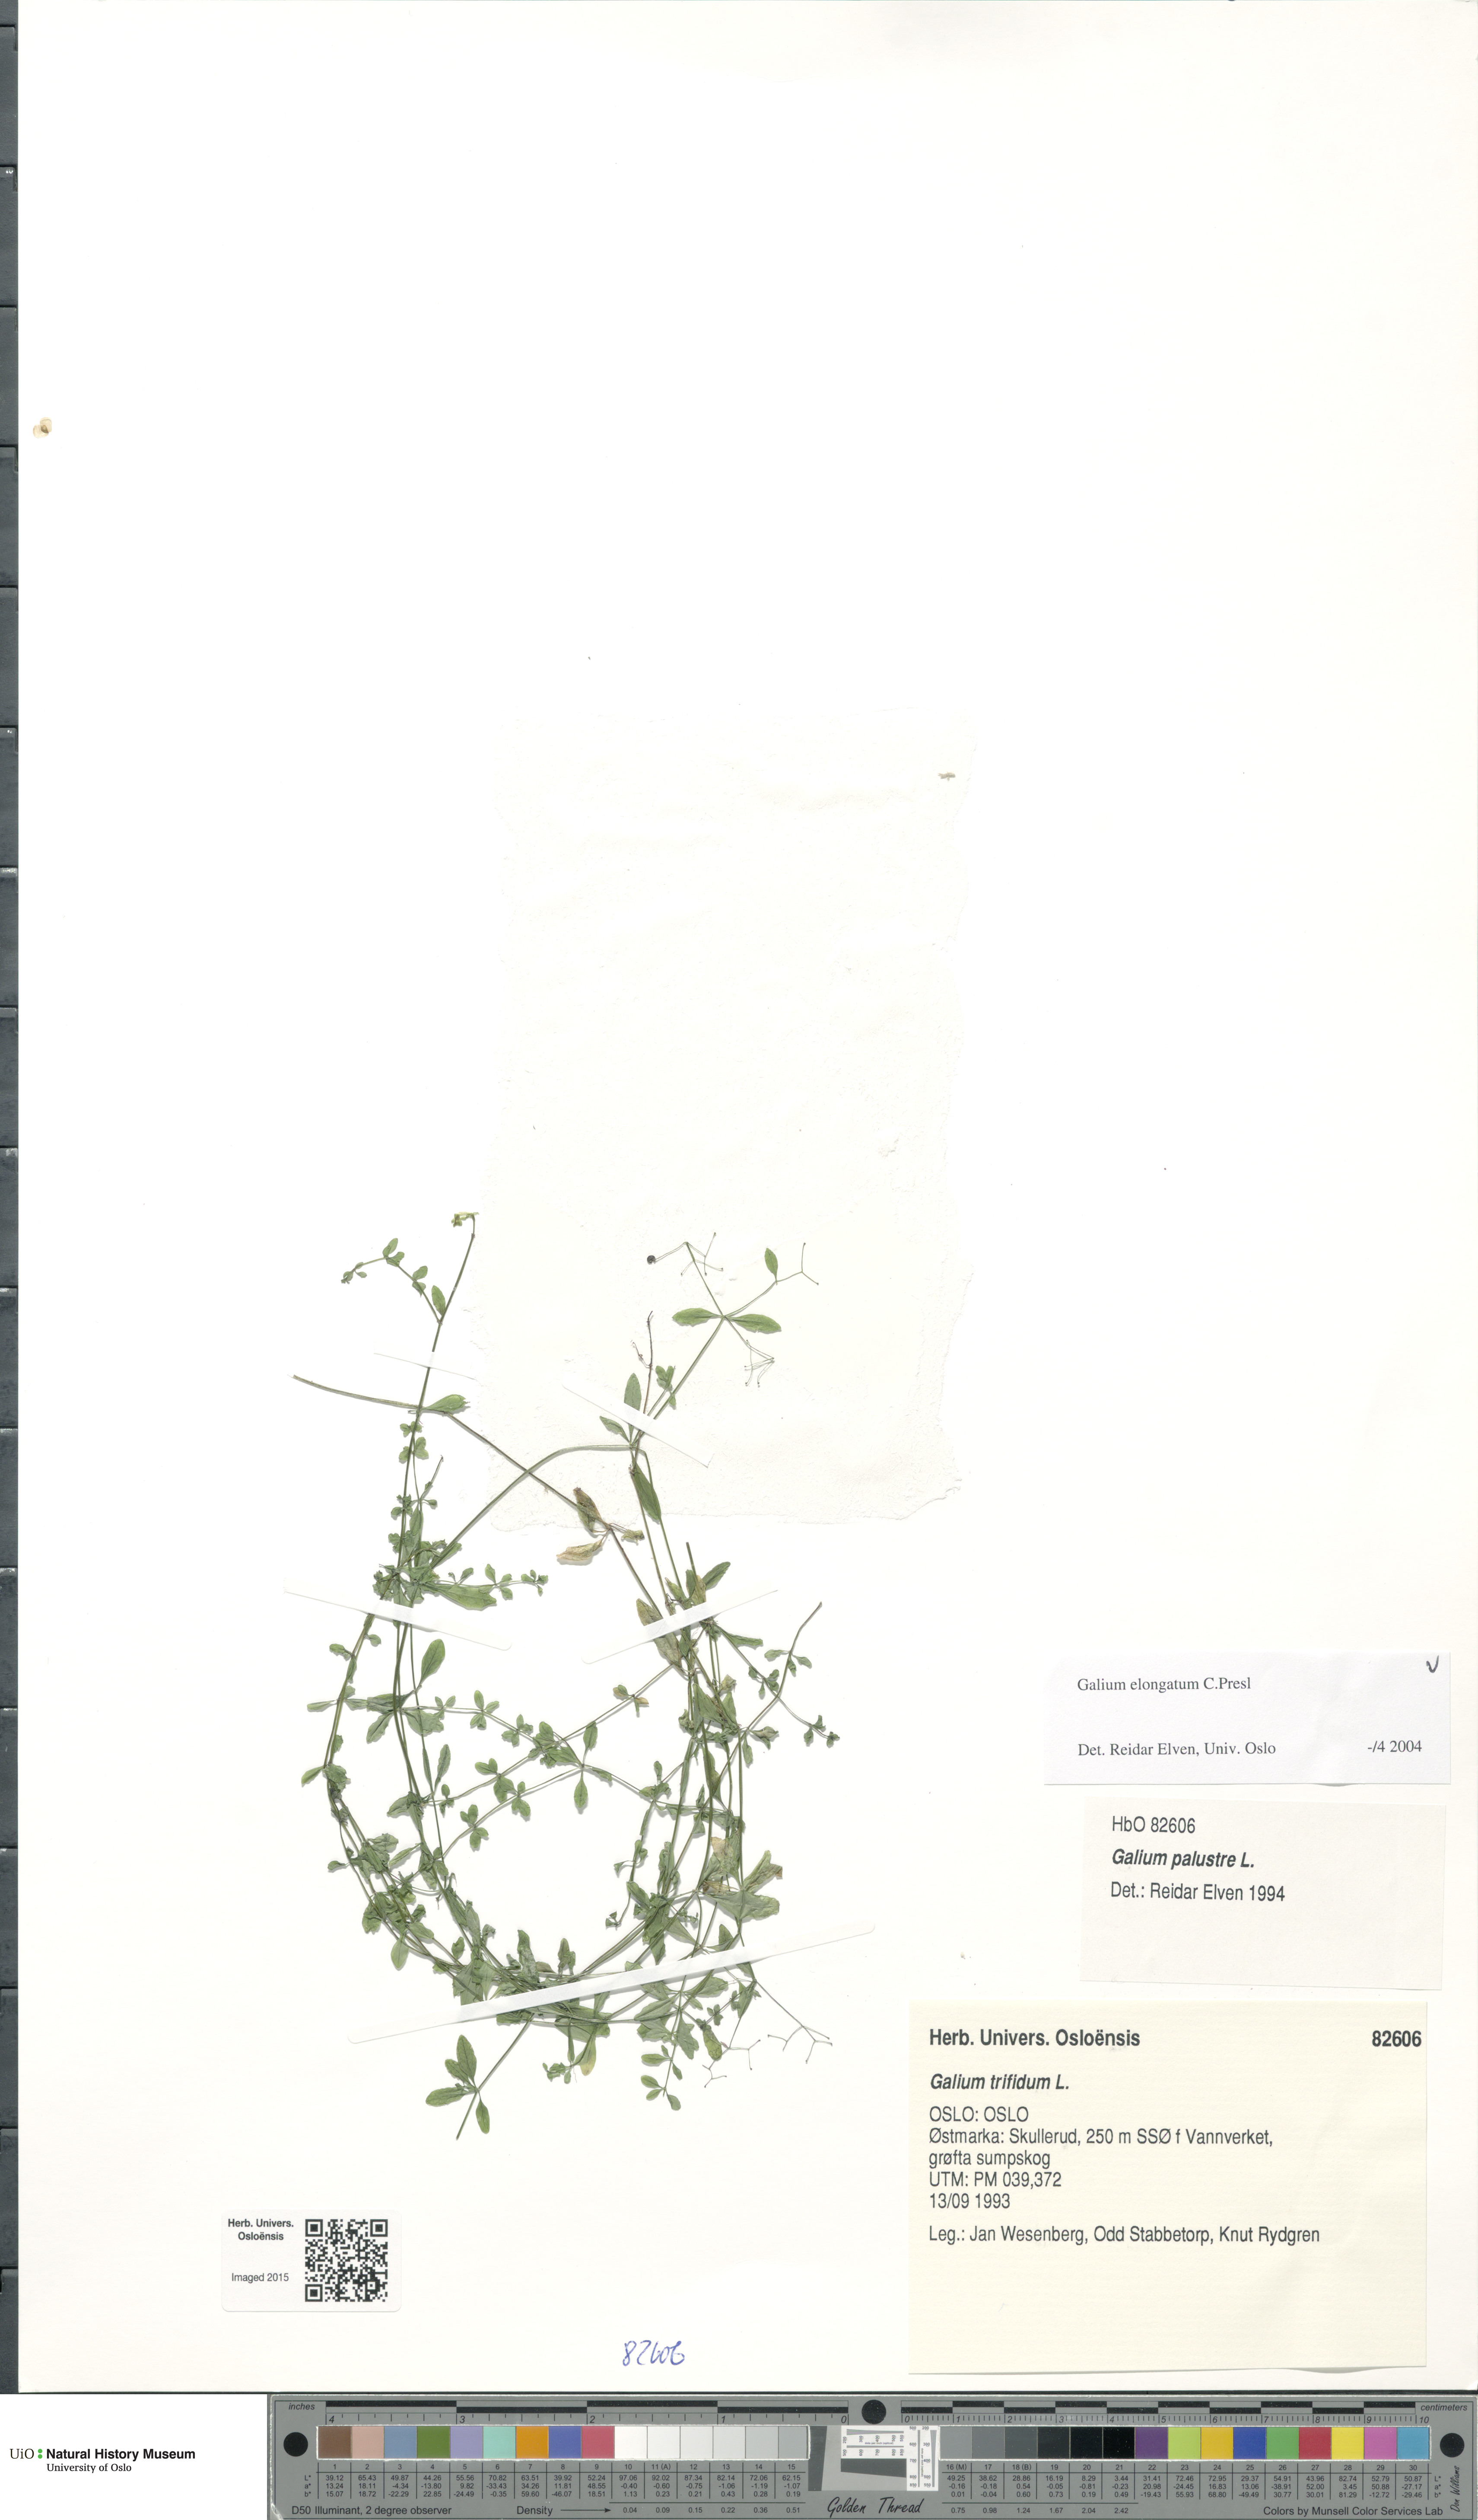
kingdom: Plantae
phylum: Tracheophyta
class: Magnoliopsida
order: Gentianales
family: Rubiaceae
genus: Galium
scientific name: Galium elongatum
